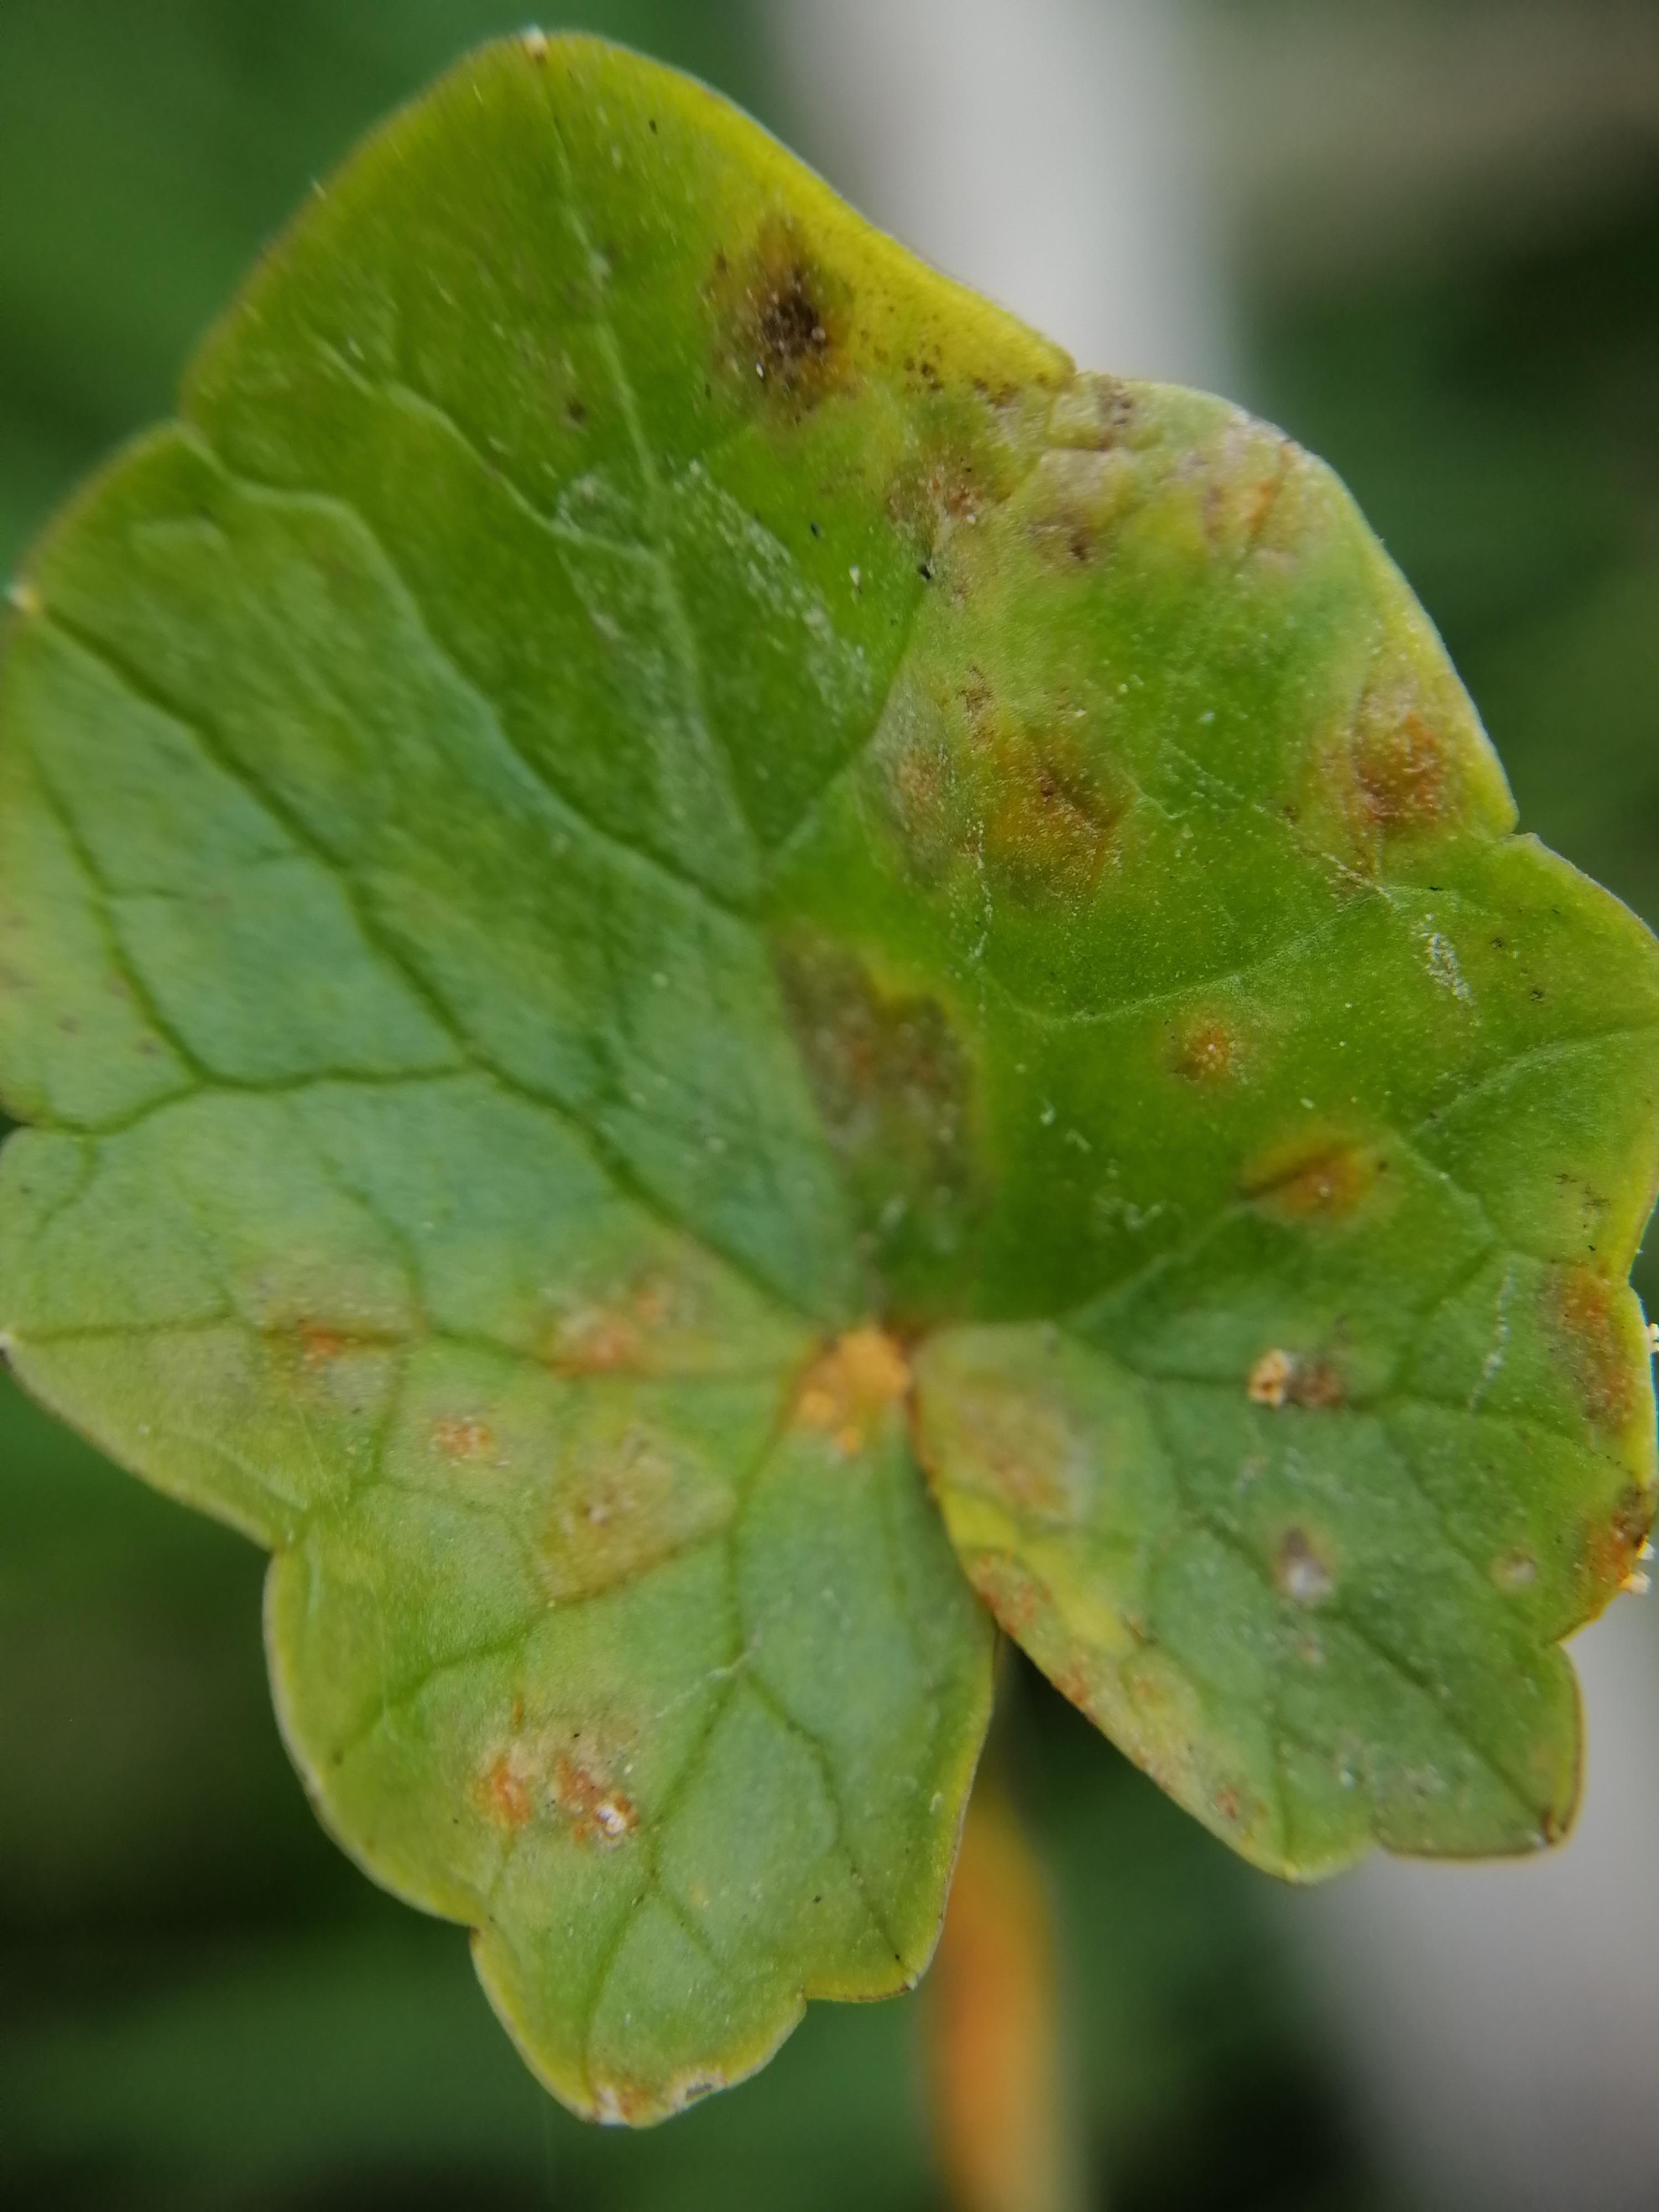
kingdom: Fungi
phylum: Basidiomycota
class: Pucciniomycetes
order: Pucciniales
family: Pucciniaceae
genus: Uromyces
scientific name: Uromyces dactylidis
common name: ranunkel-encellerust
